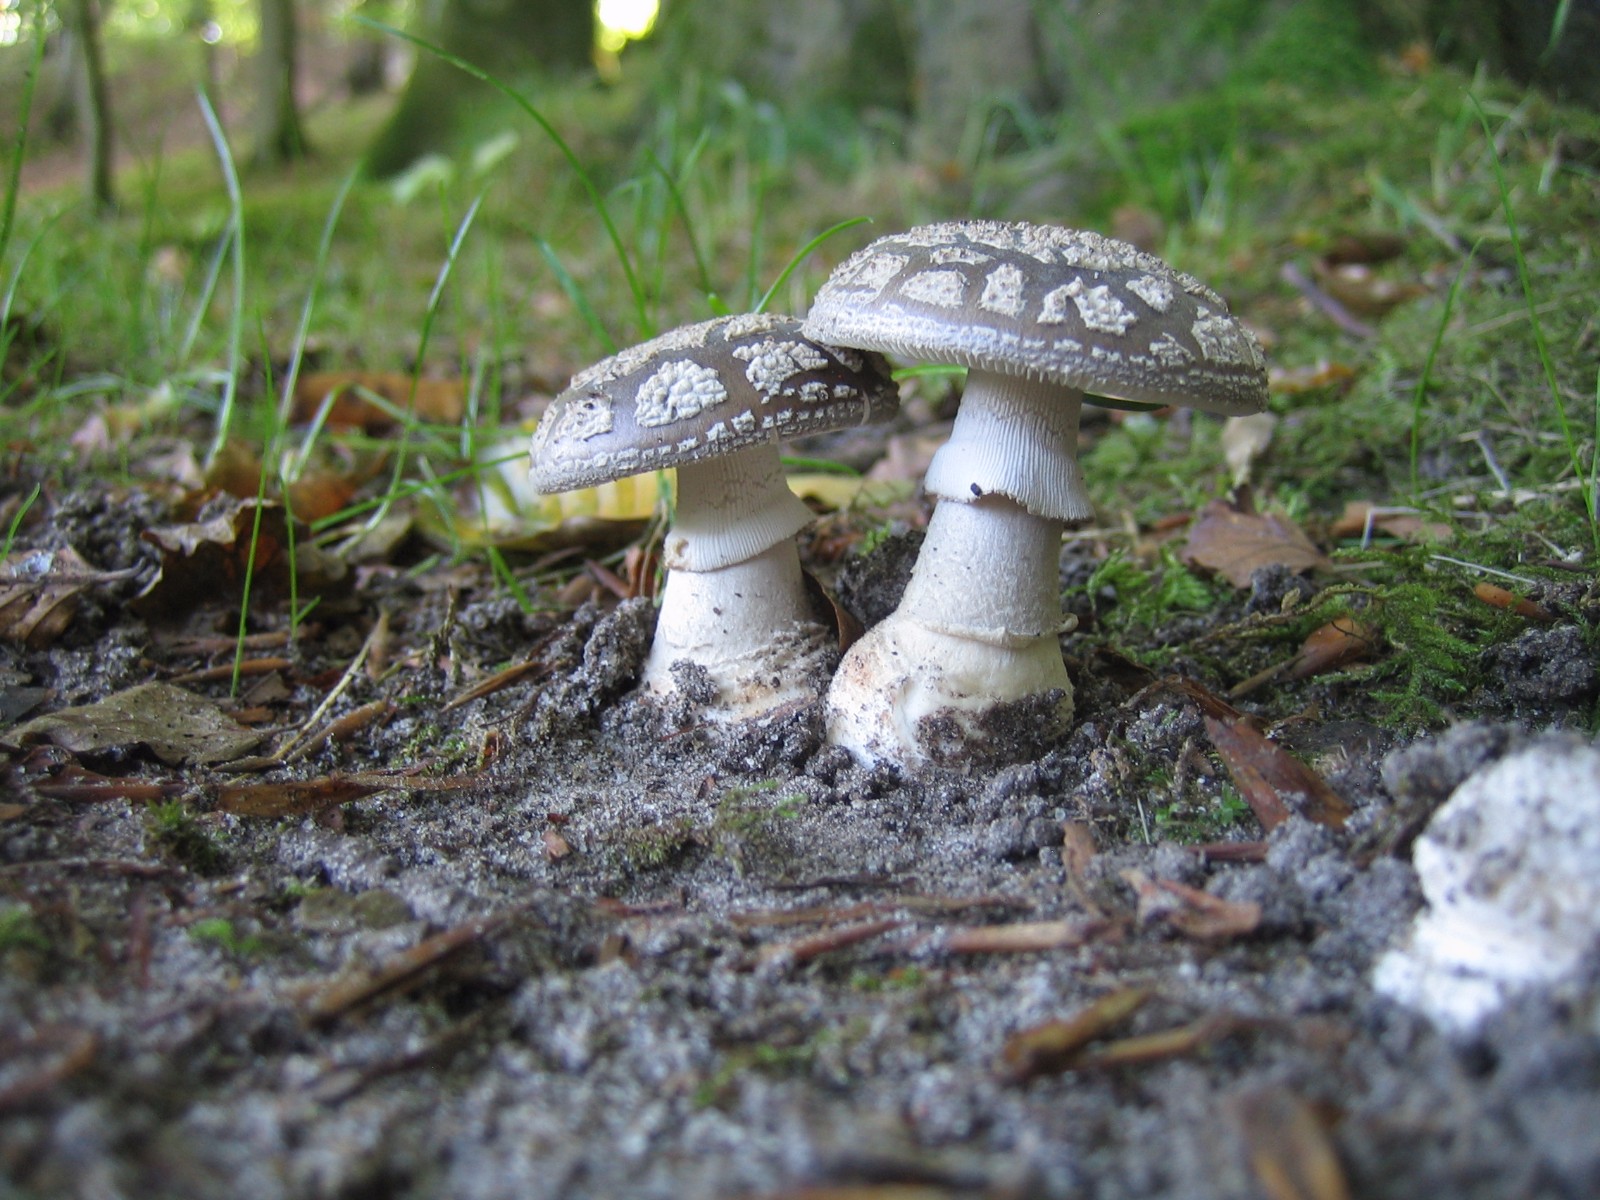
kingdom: Fungi
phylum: Basidiomycota
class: Agaricomycetes
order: Agaricales
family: Amanitaceae
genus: Amanita
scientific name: Amanita
